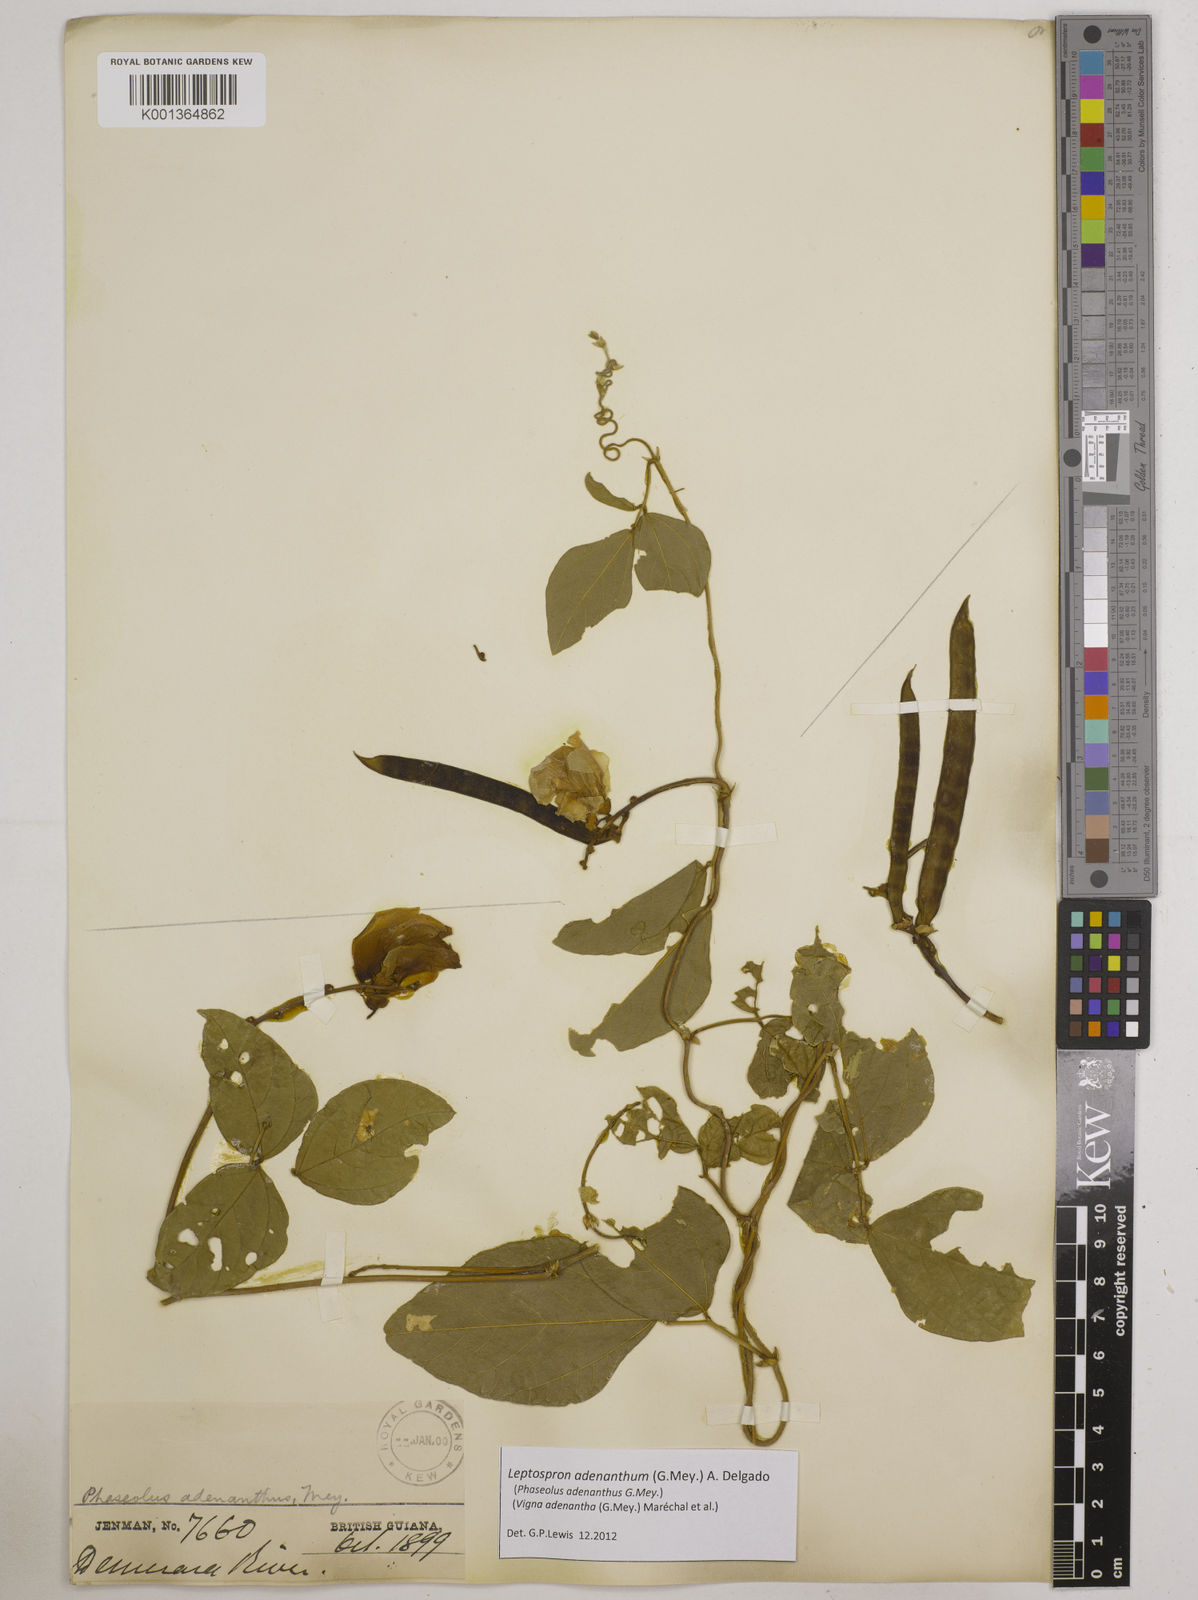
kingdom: Plantae
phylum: Tracheophyta
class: Magnoliopsida
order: Fabales
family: Fabaceae
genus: Leptospron
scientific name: Leptospron adenanthum
